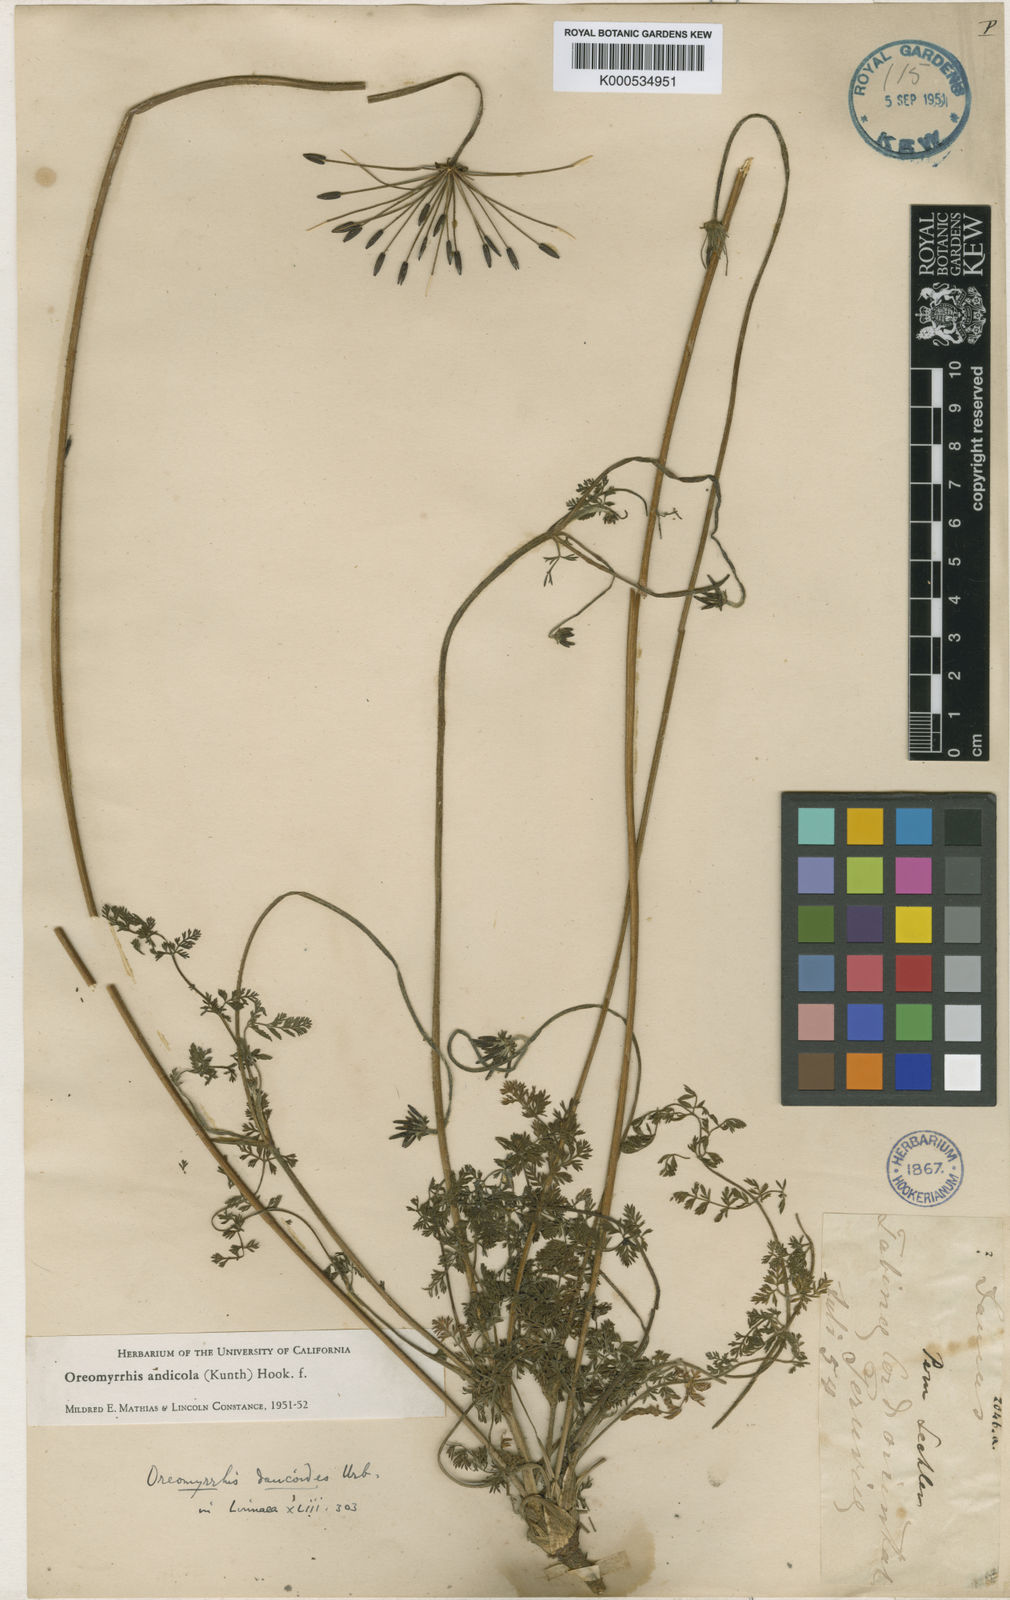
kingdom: Plantae
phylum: Tracheophyta
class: Magnoliopsida
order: Apiales
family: Apiaceae
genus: Chaerophyllum
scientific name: Chaerophyllum andicola
